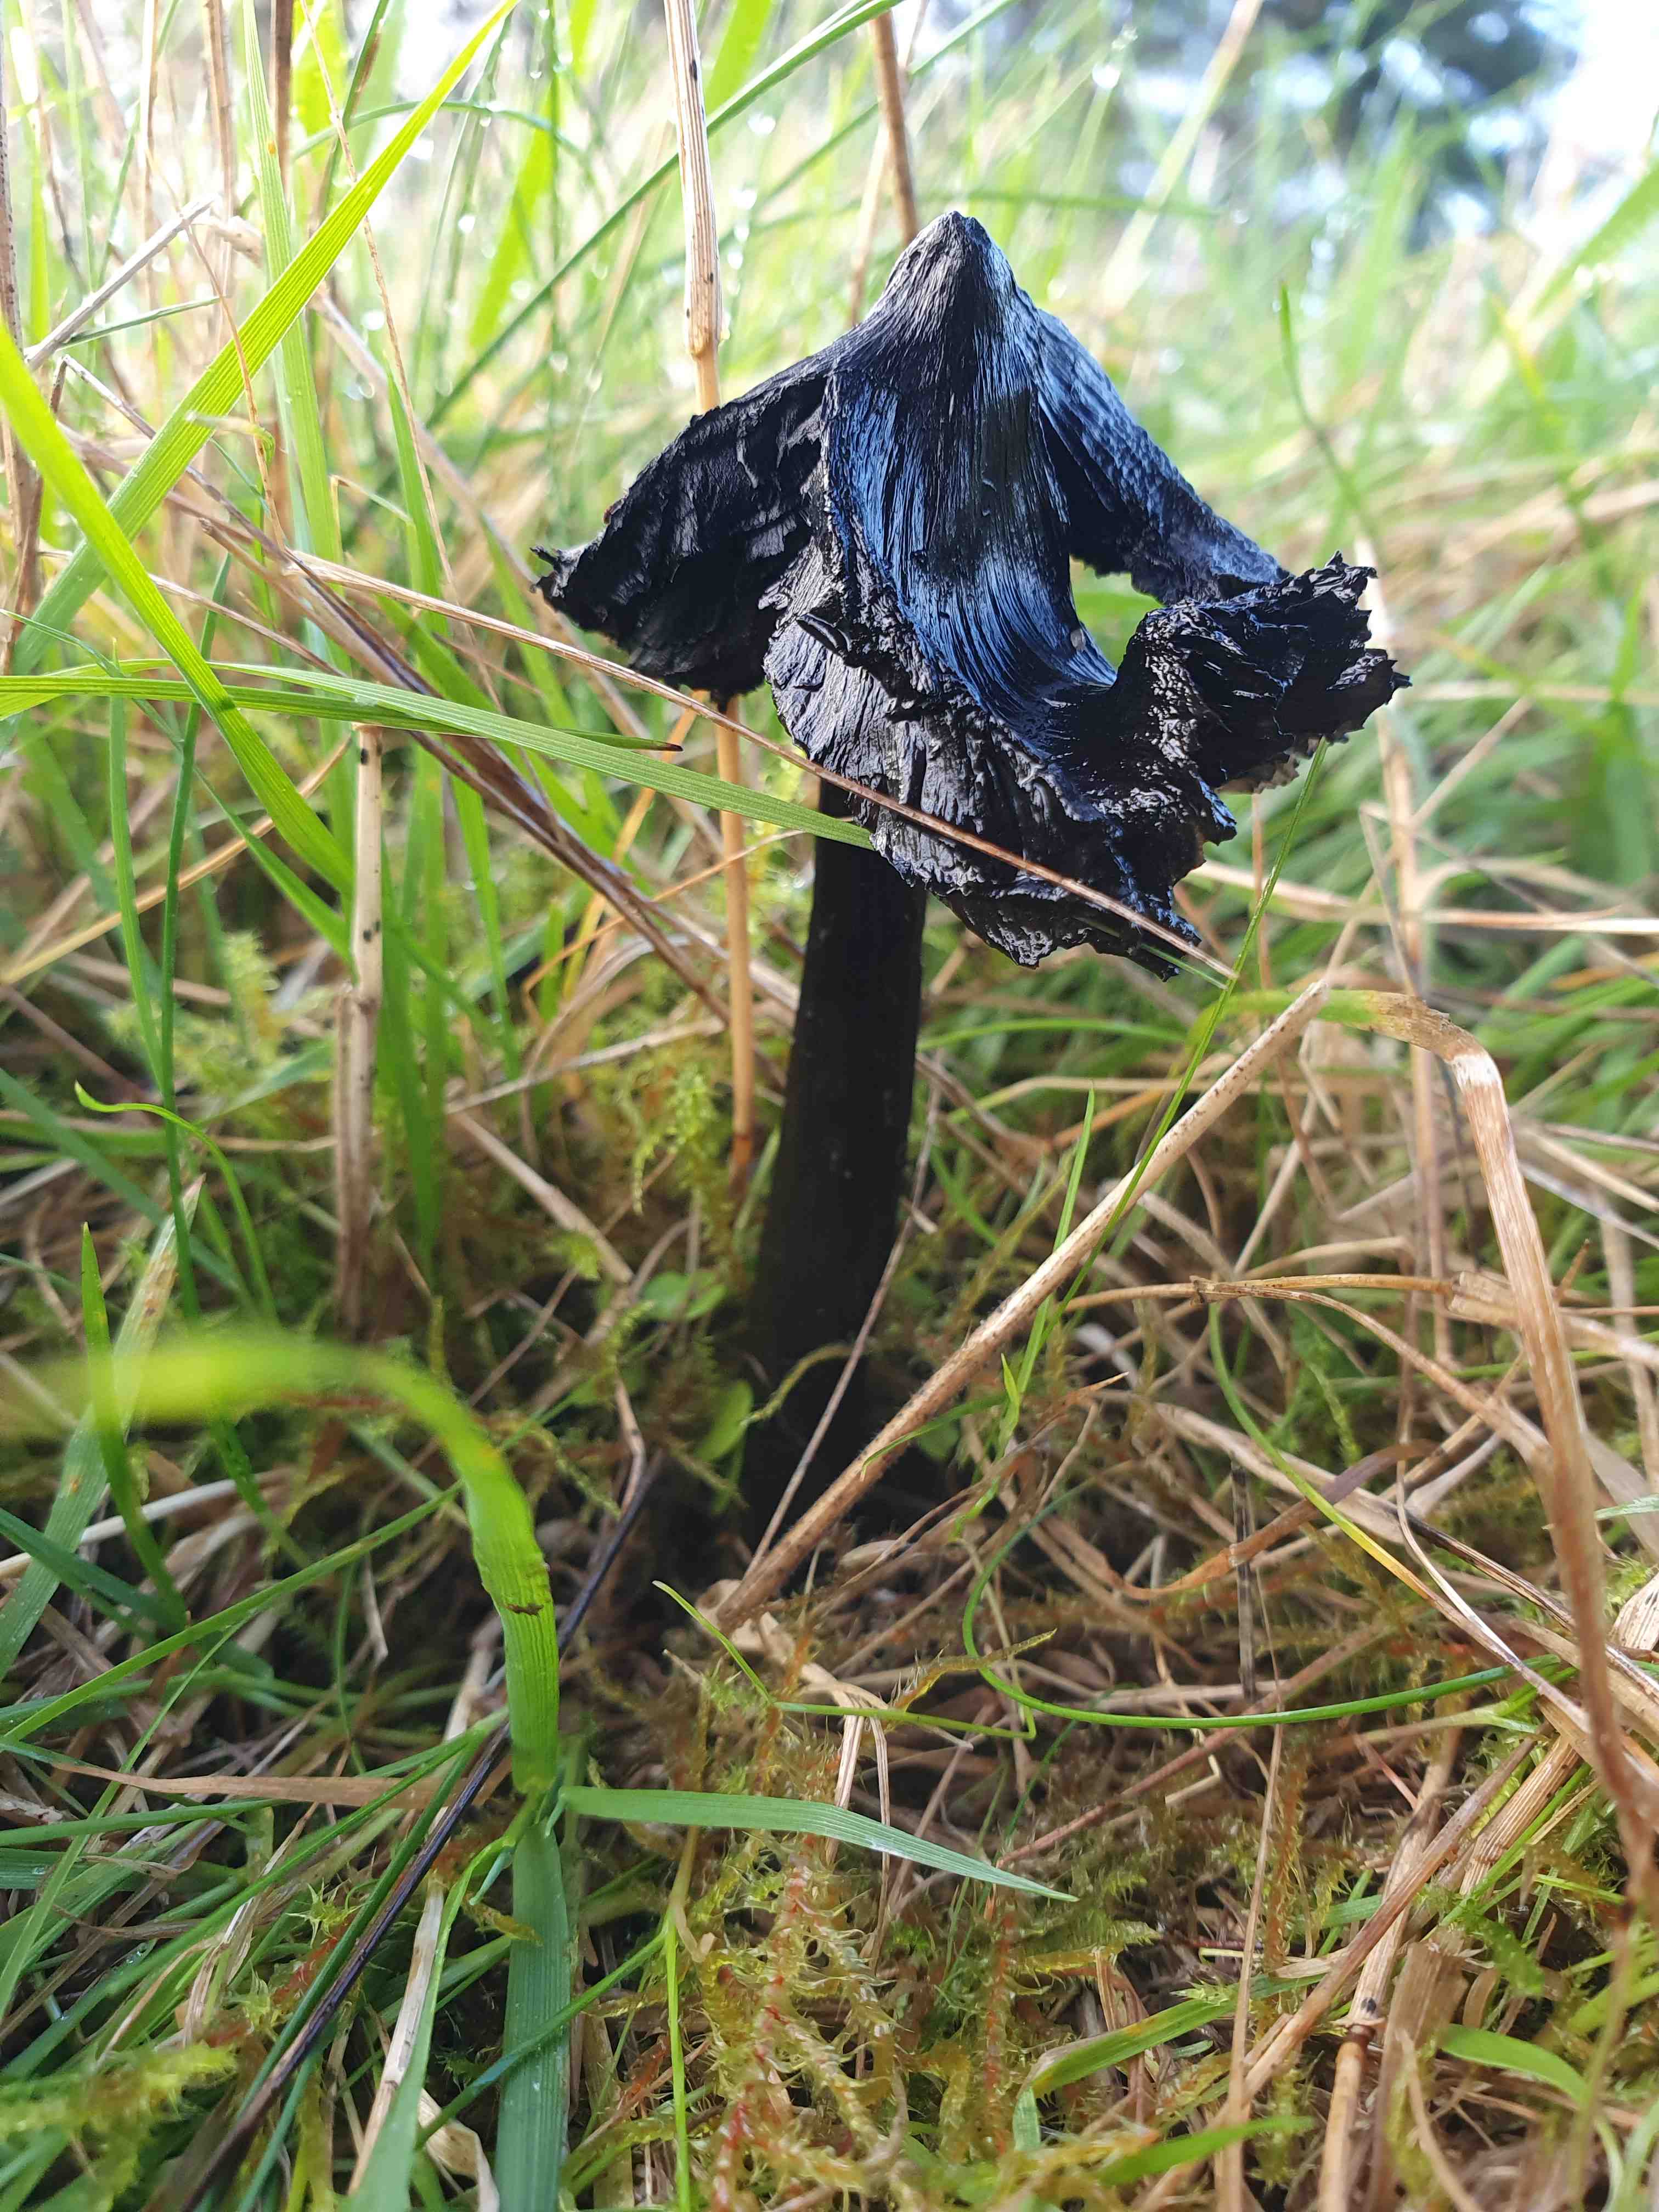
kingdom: Fungi
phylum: Basidiomycota
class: Agaricomycetes
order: Agaricales
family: Hygrophoraceae
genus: Hygrocybe
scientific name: Hygrocybe conica
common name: kegle-vokshat
